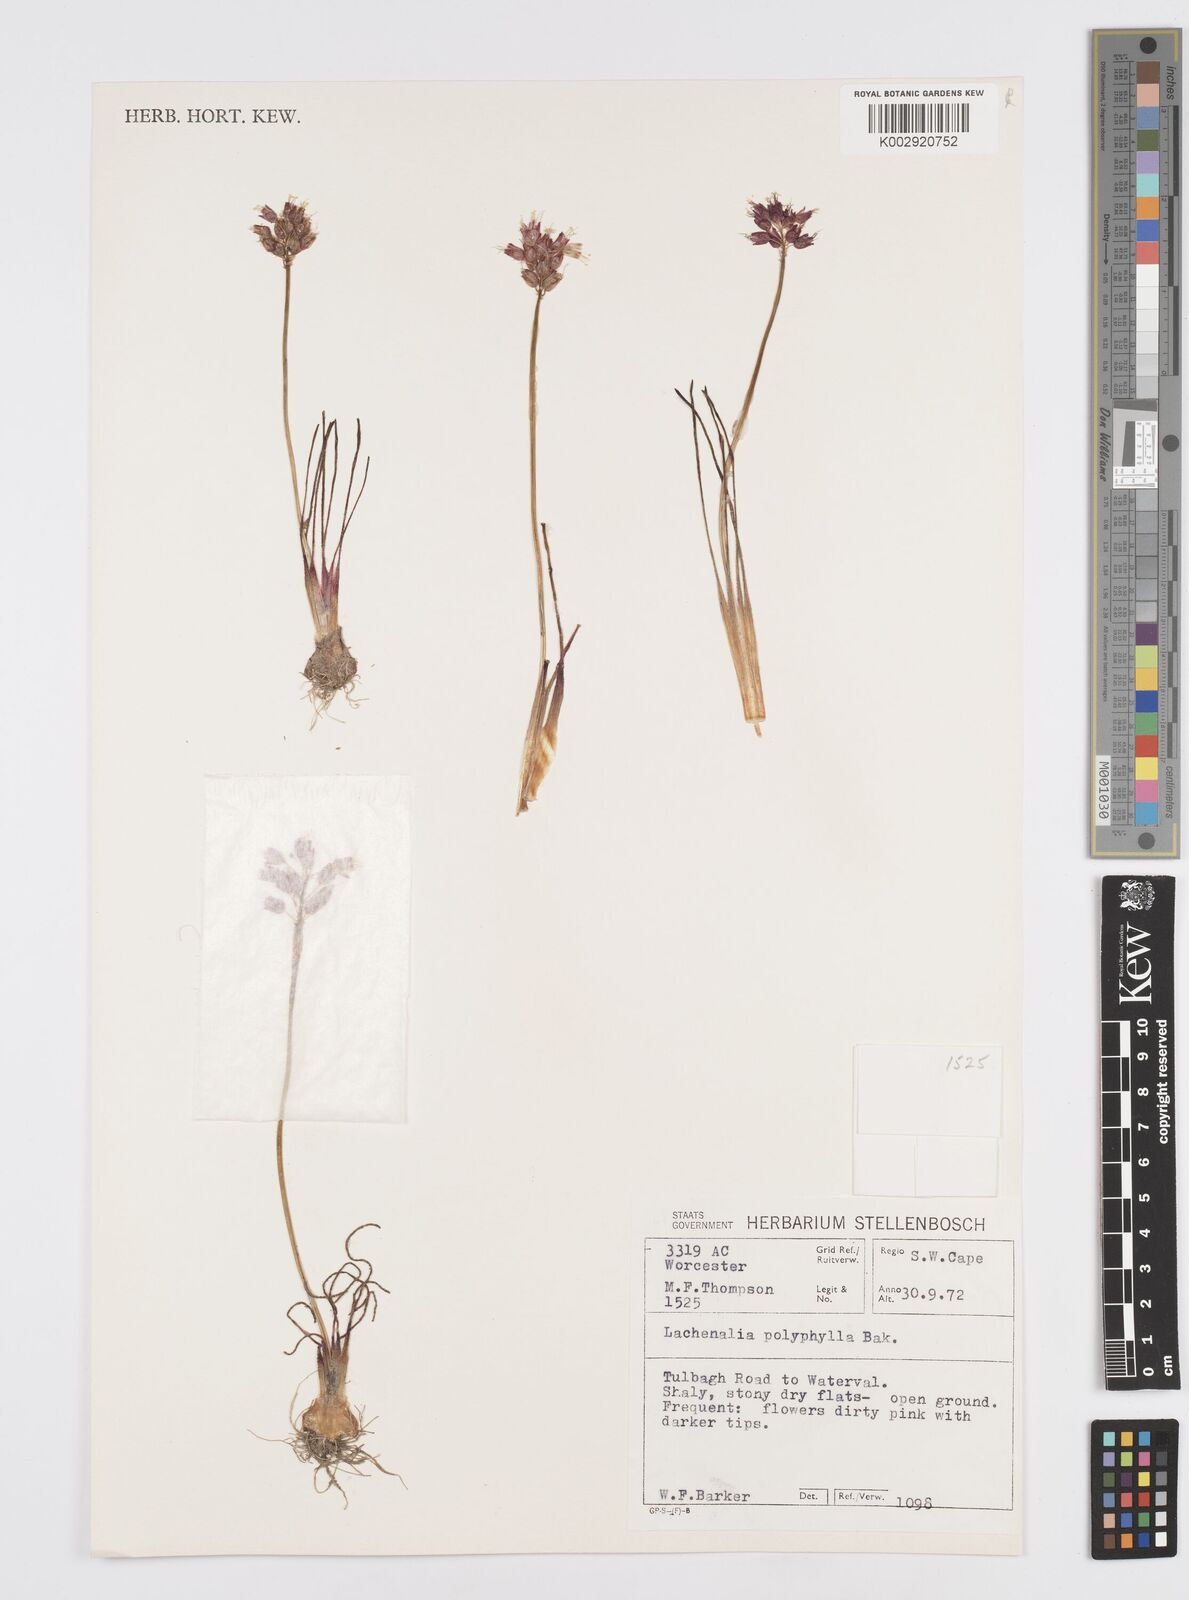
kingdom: Plantae
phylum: Tracheophyta
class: Liliopsida
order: Asparagales
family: Asparagaceae
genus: Lachenalia
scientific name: Lachenalia polyphylla
